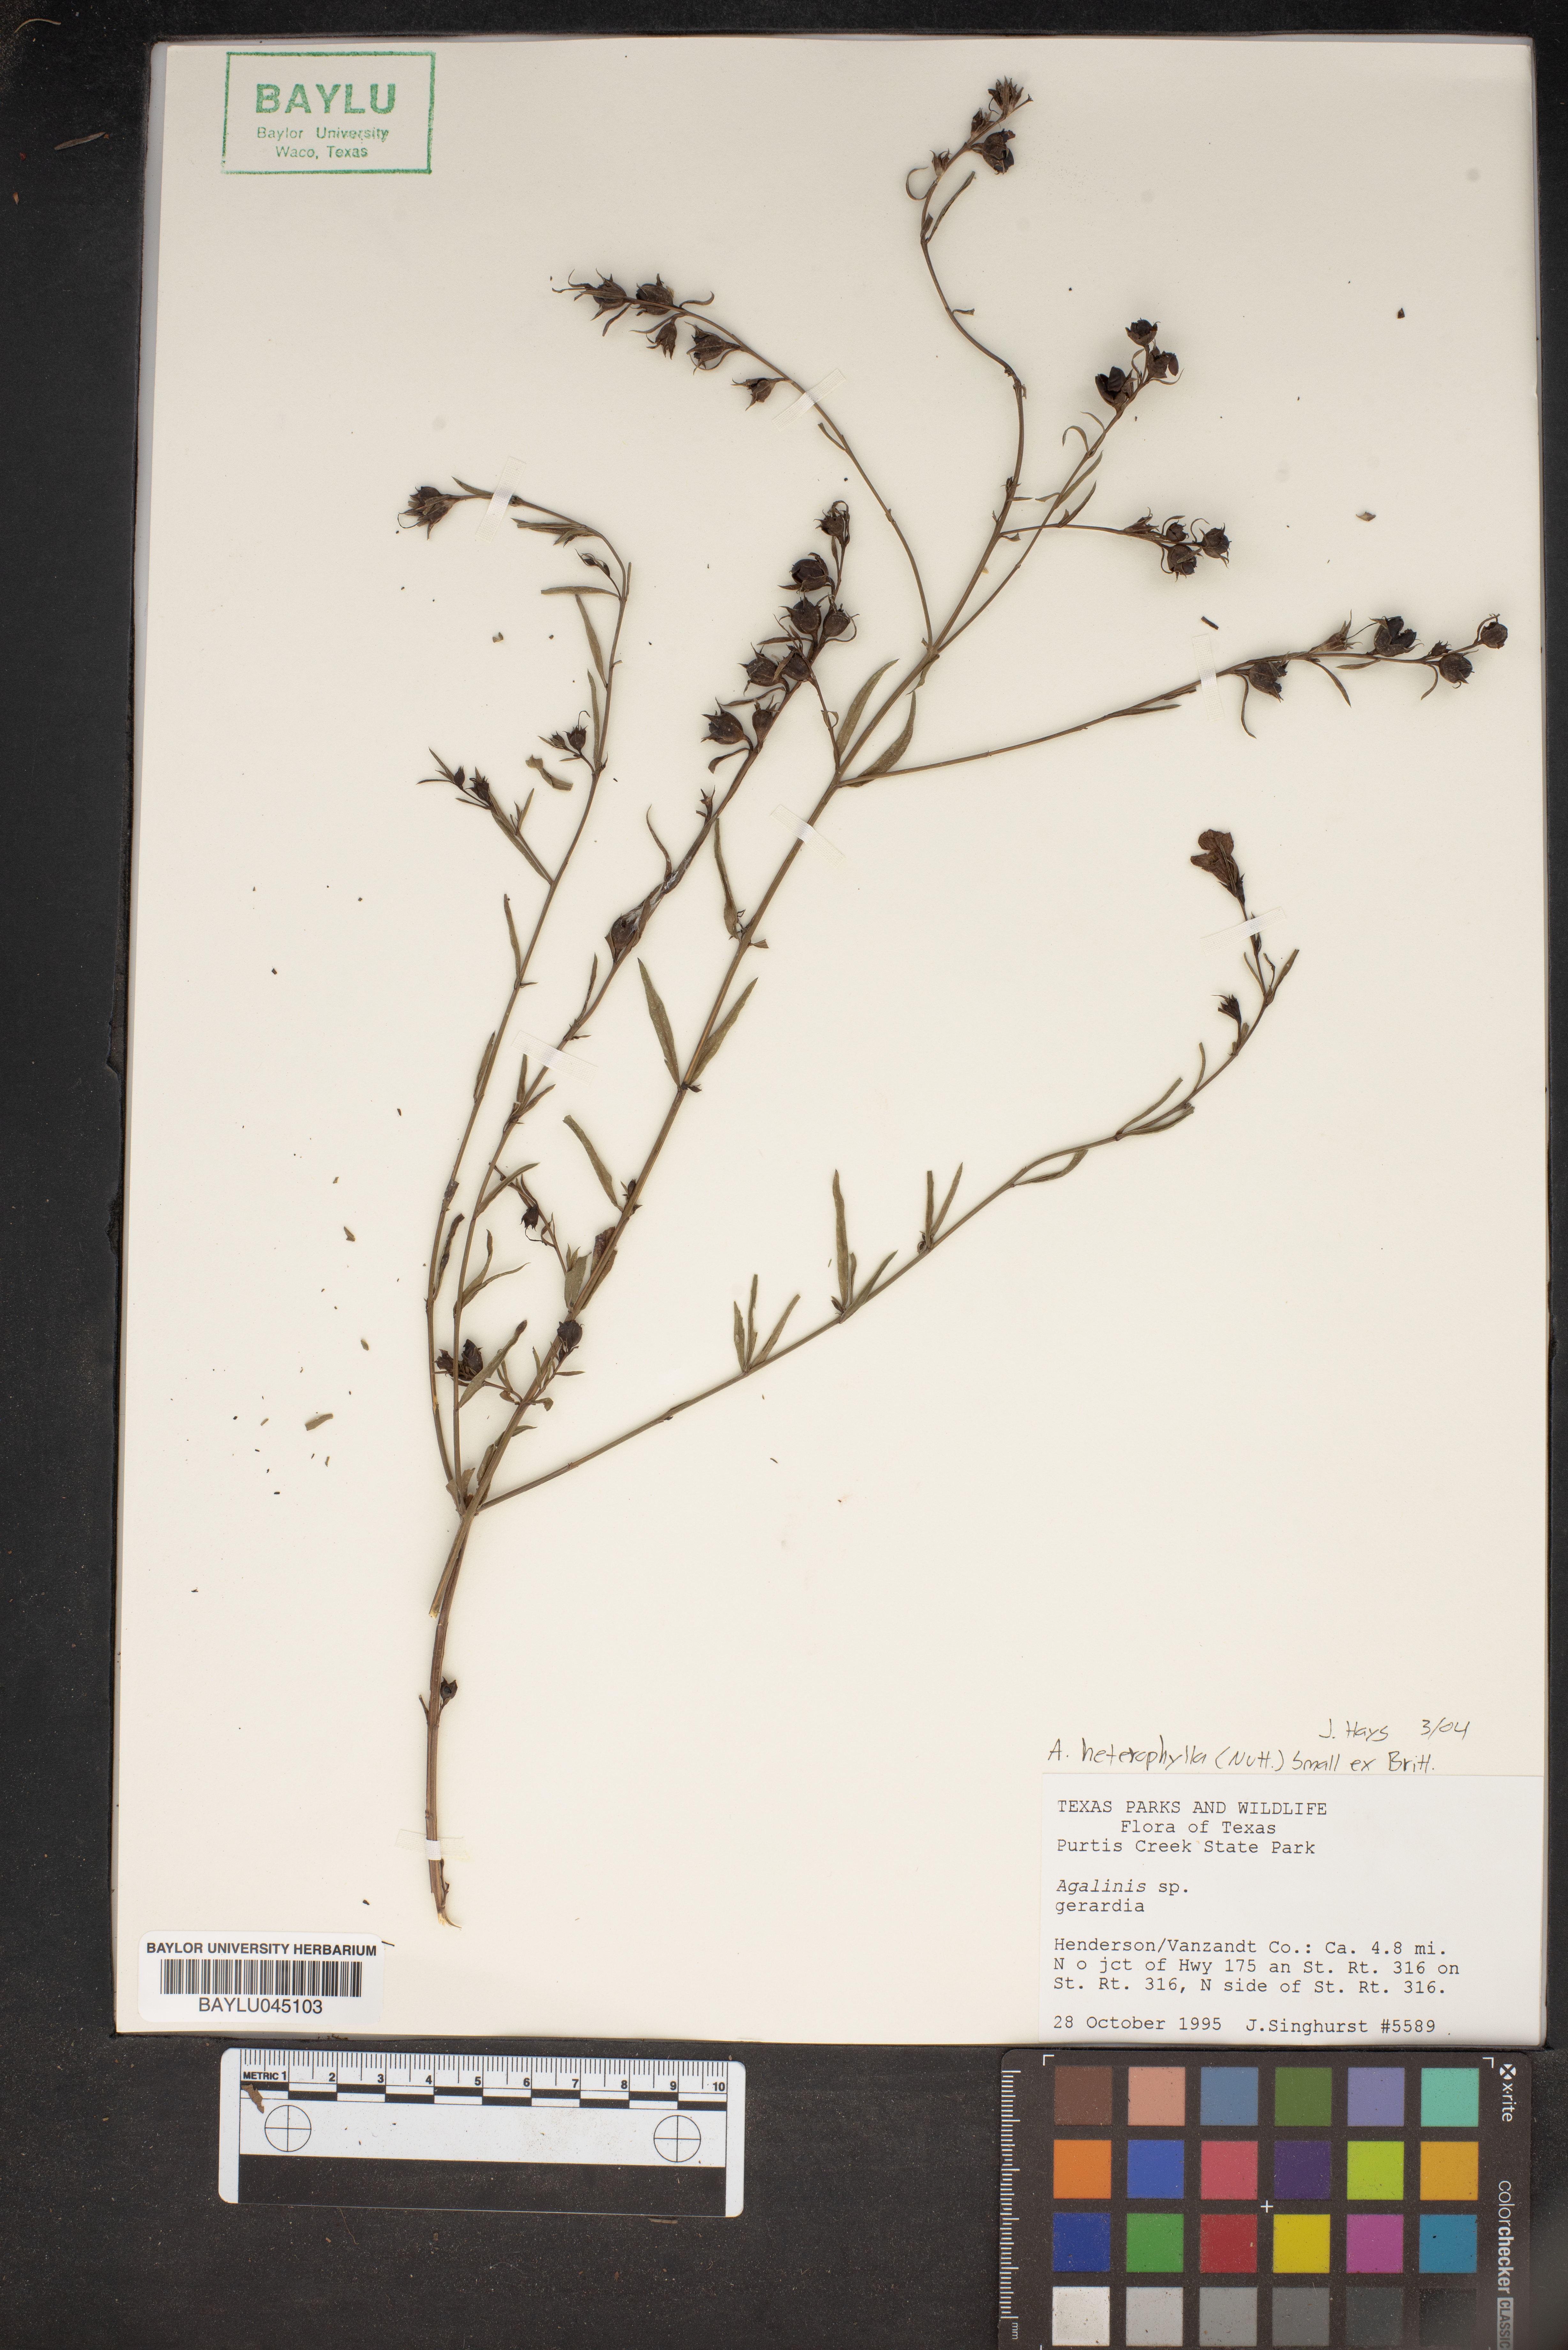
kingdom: Plantae
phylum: Tracheophyta
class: Magnoliopsida
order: Lamiales
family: Orobanchaceae
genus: Agalinis
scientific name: Agalinis
